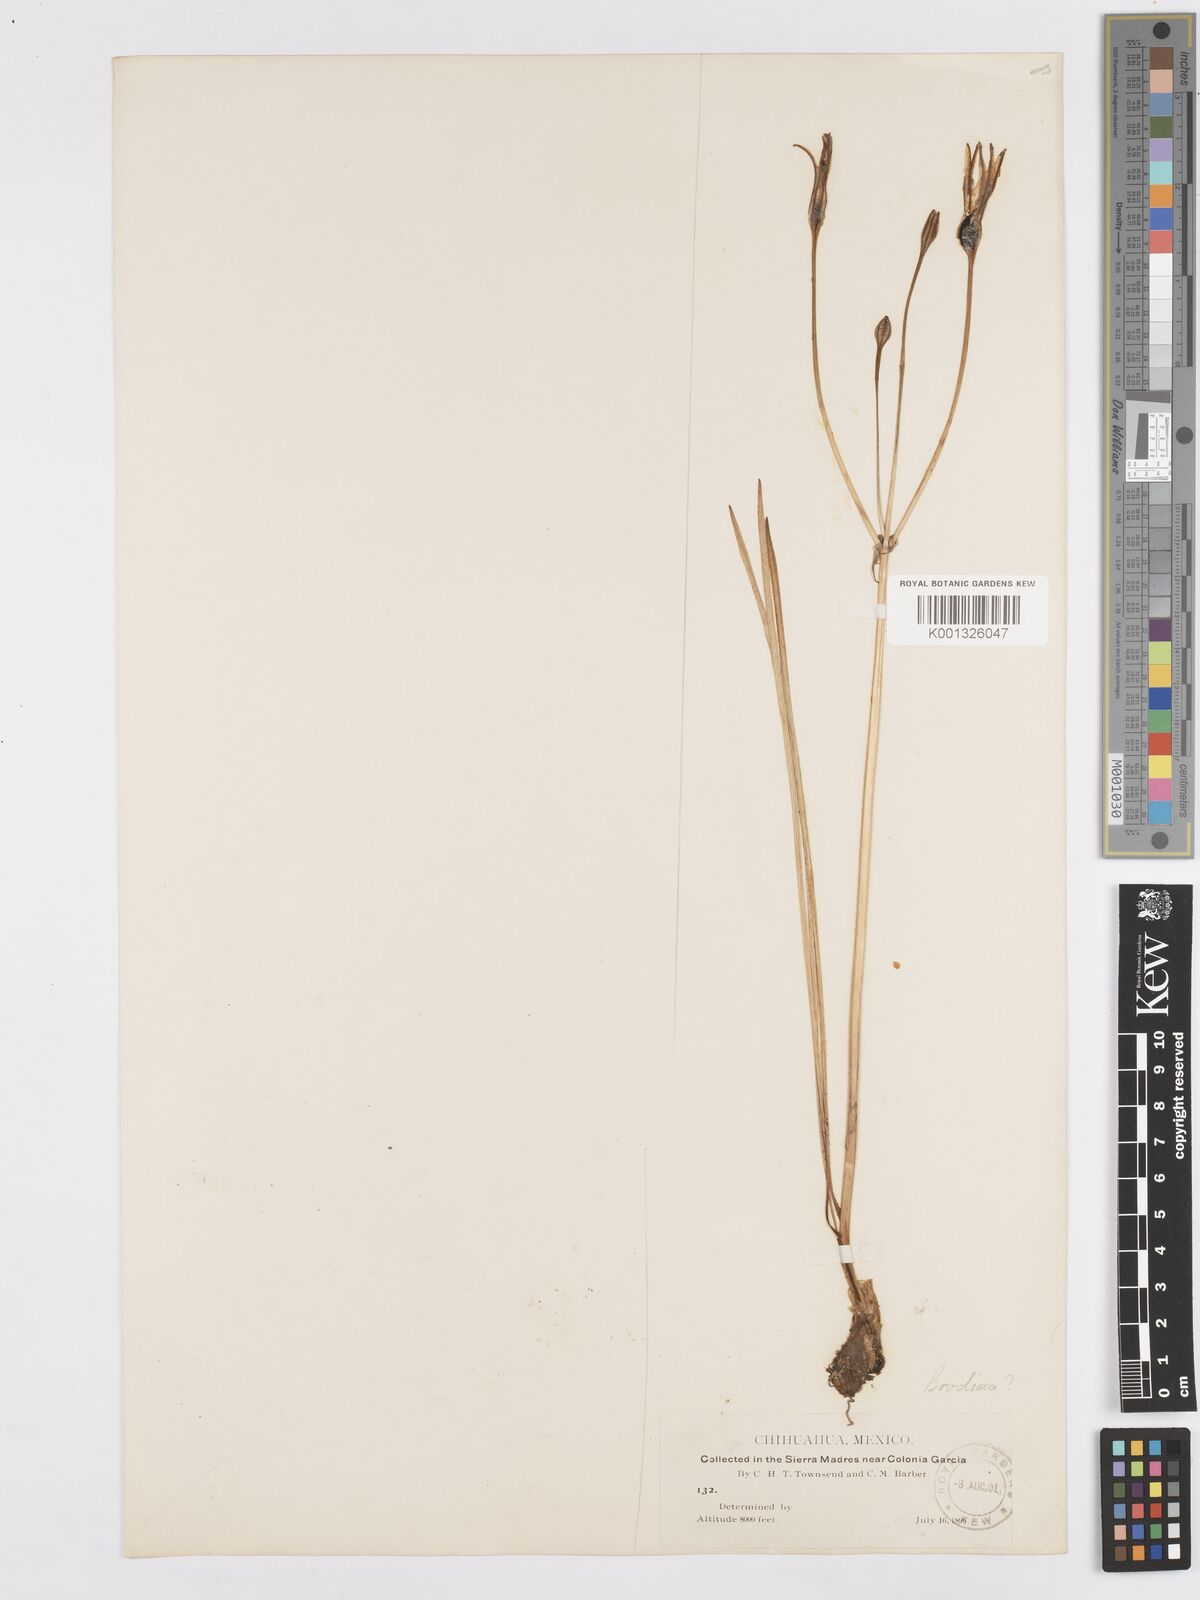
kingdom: Plantae
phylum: Tracheophyta
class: Liliopsida
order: Asparagales
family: Asparagaceae
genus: Milla
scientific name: Milla biflora
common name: Mexican-star
